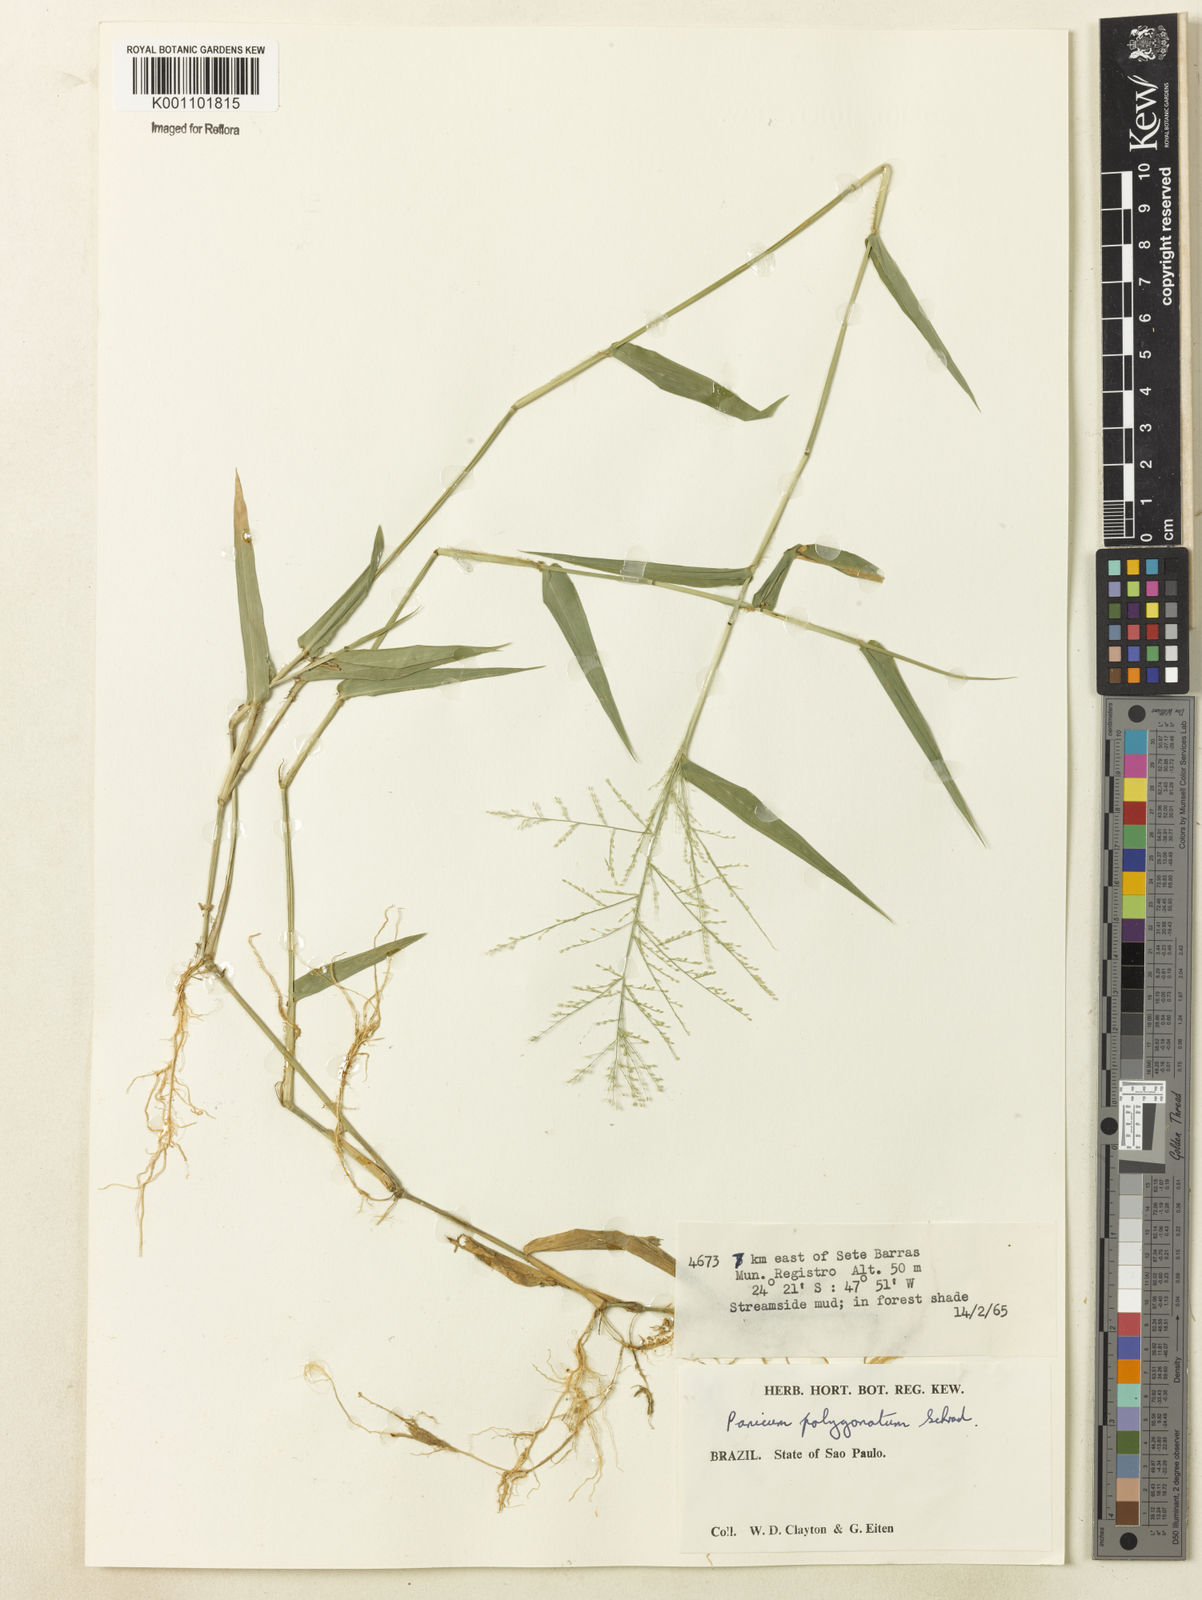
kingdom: Plantae
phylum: Tracheophyta
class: Liliopsida
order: Poales
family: Poaceae
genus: Rugoloa
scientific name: Rugoloa polygonata
